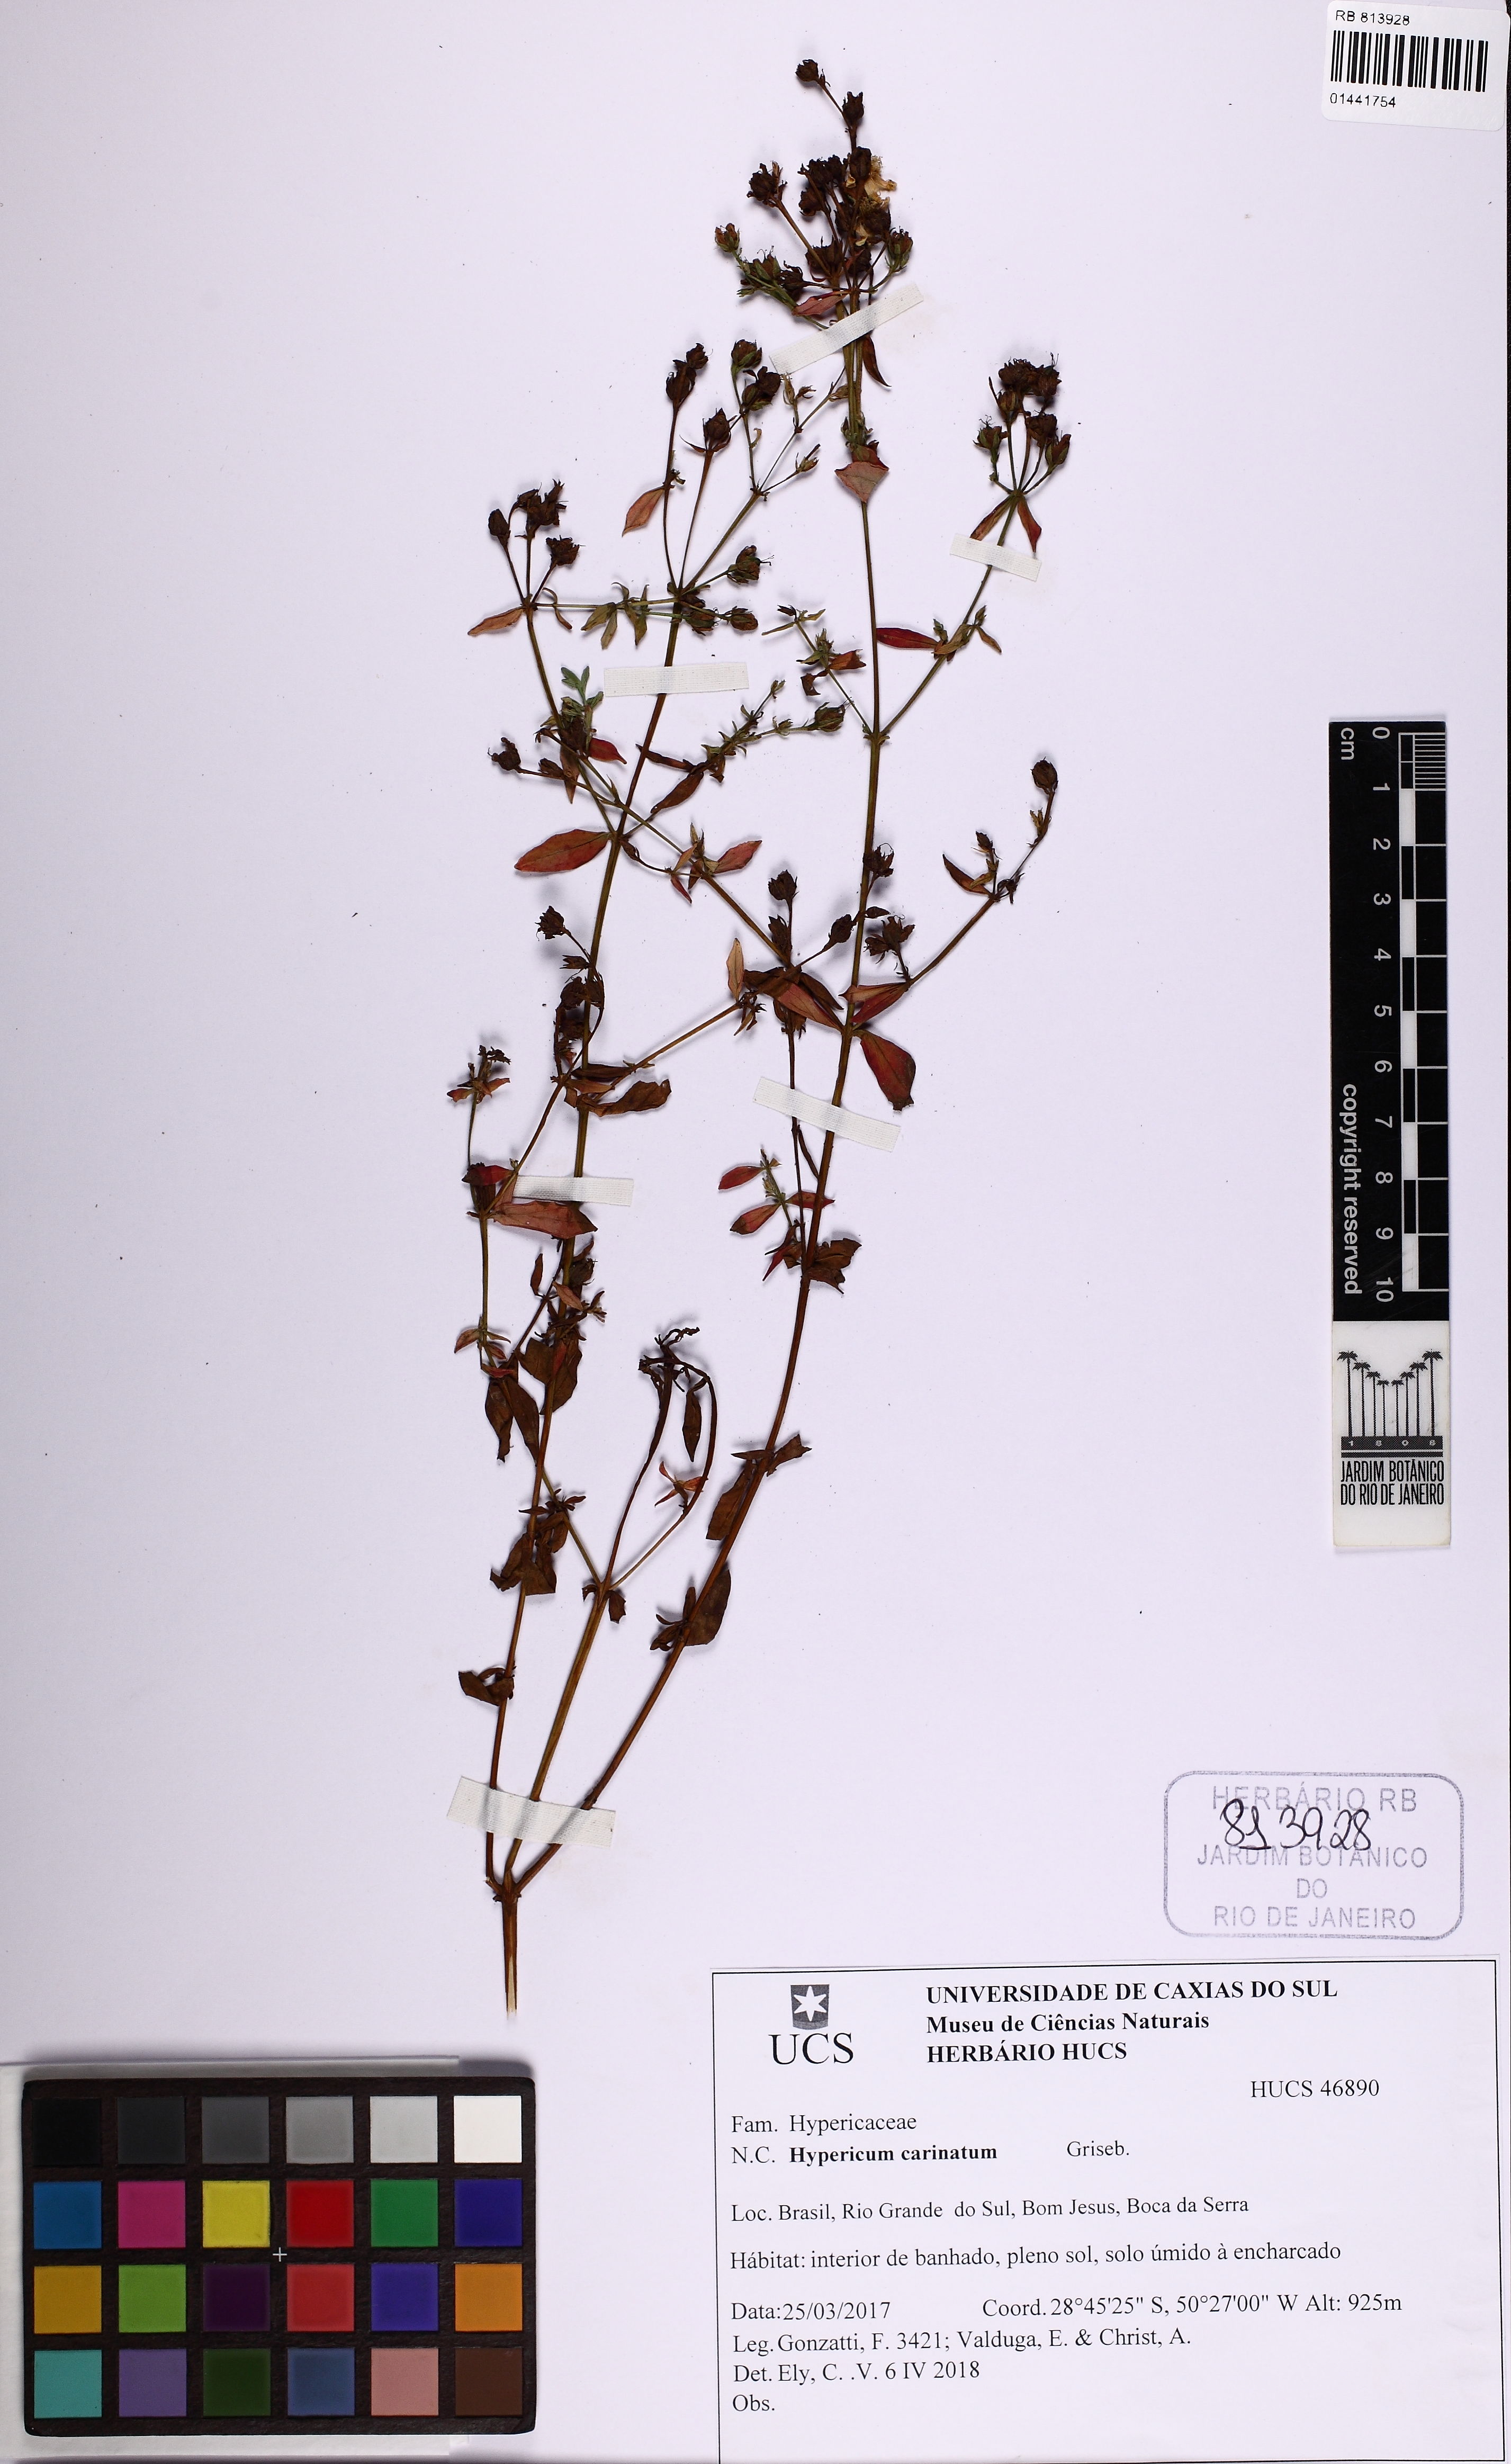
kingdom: Plantae
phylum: Tracheophyta
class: Magnoliopsida
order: Malpighiales
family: Hypericaceae
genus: Hypericum
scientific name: Hypericum carinatum
